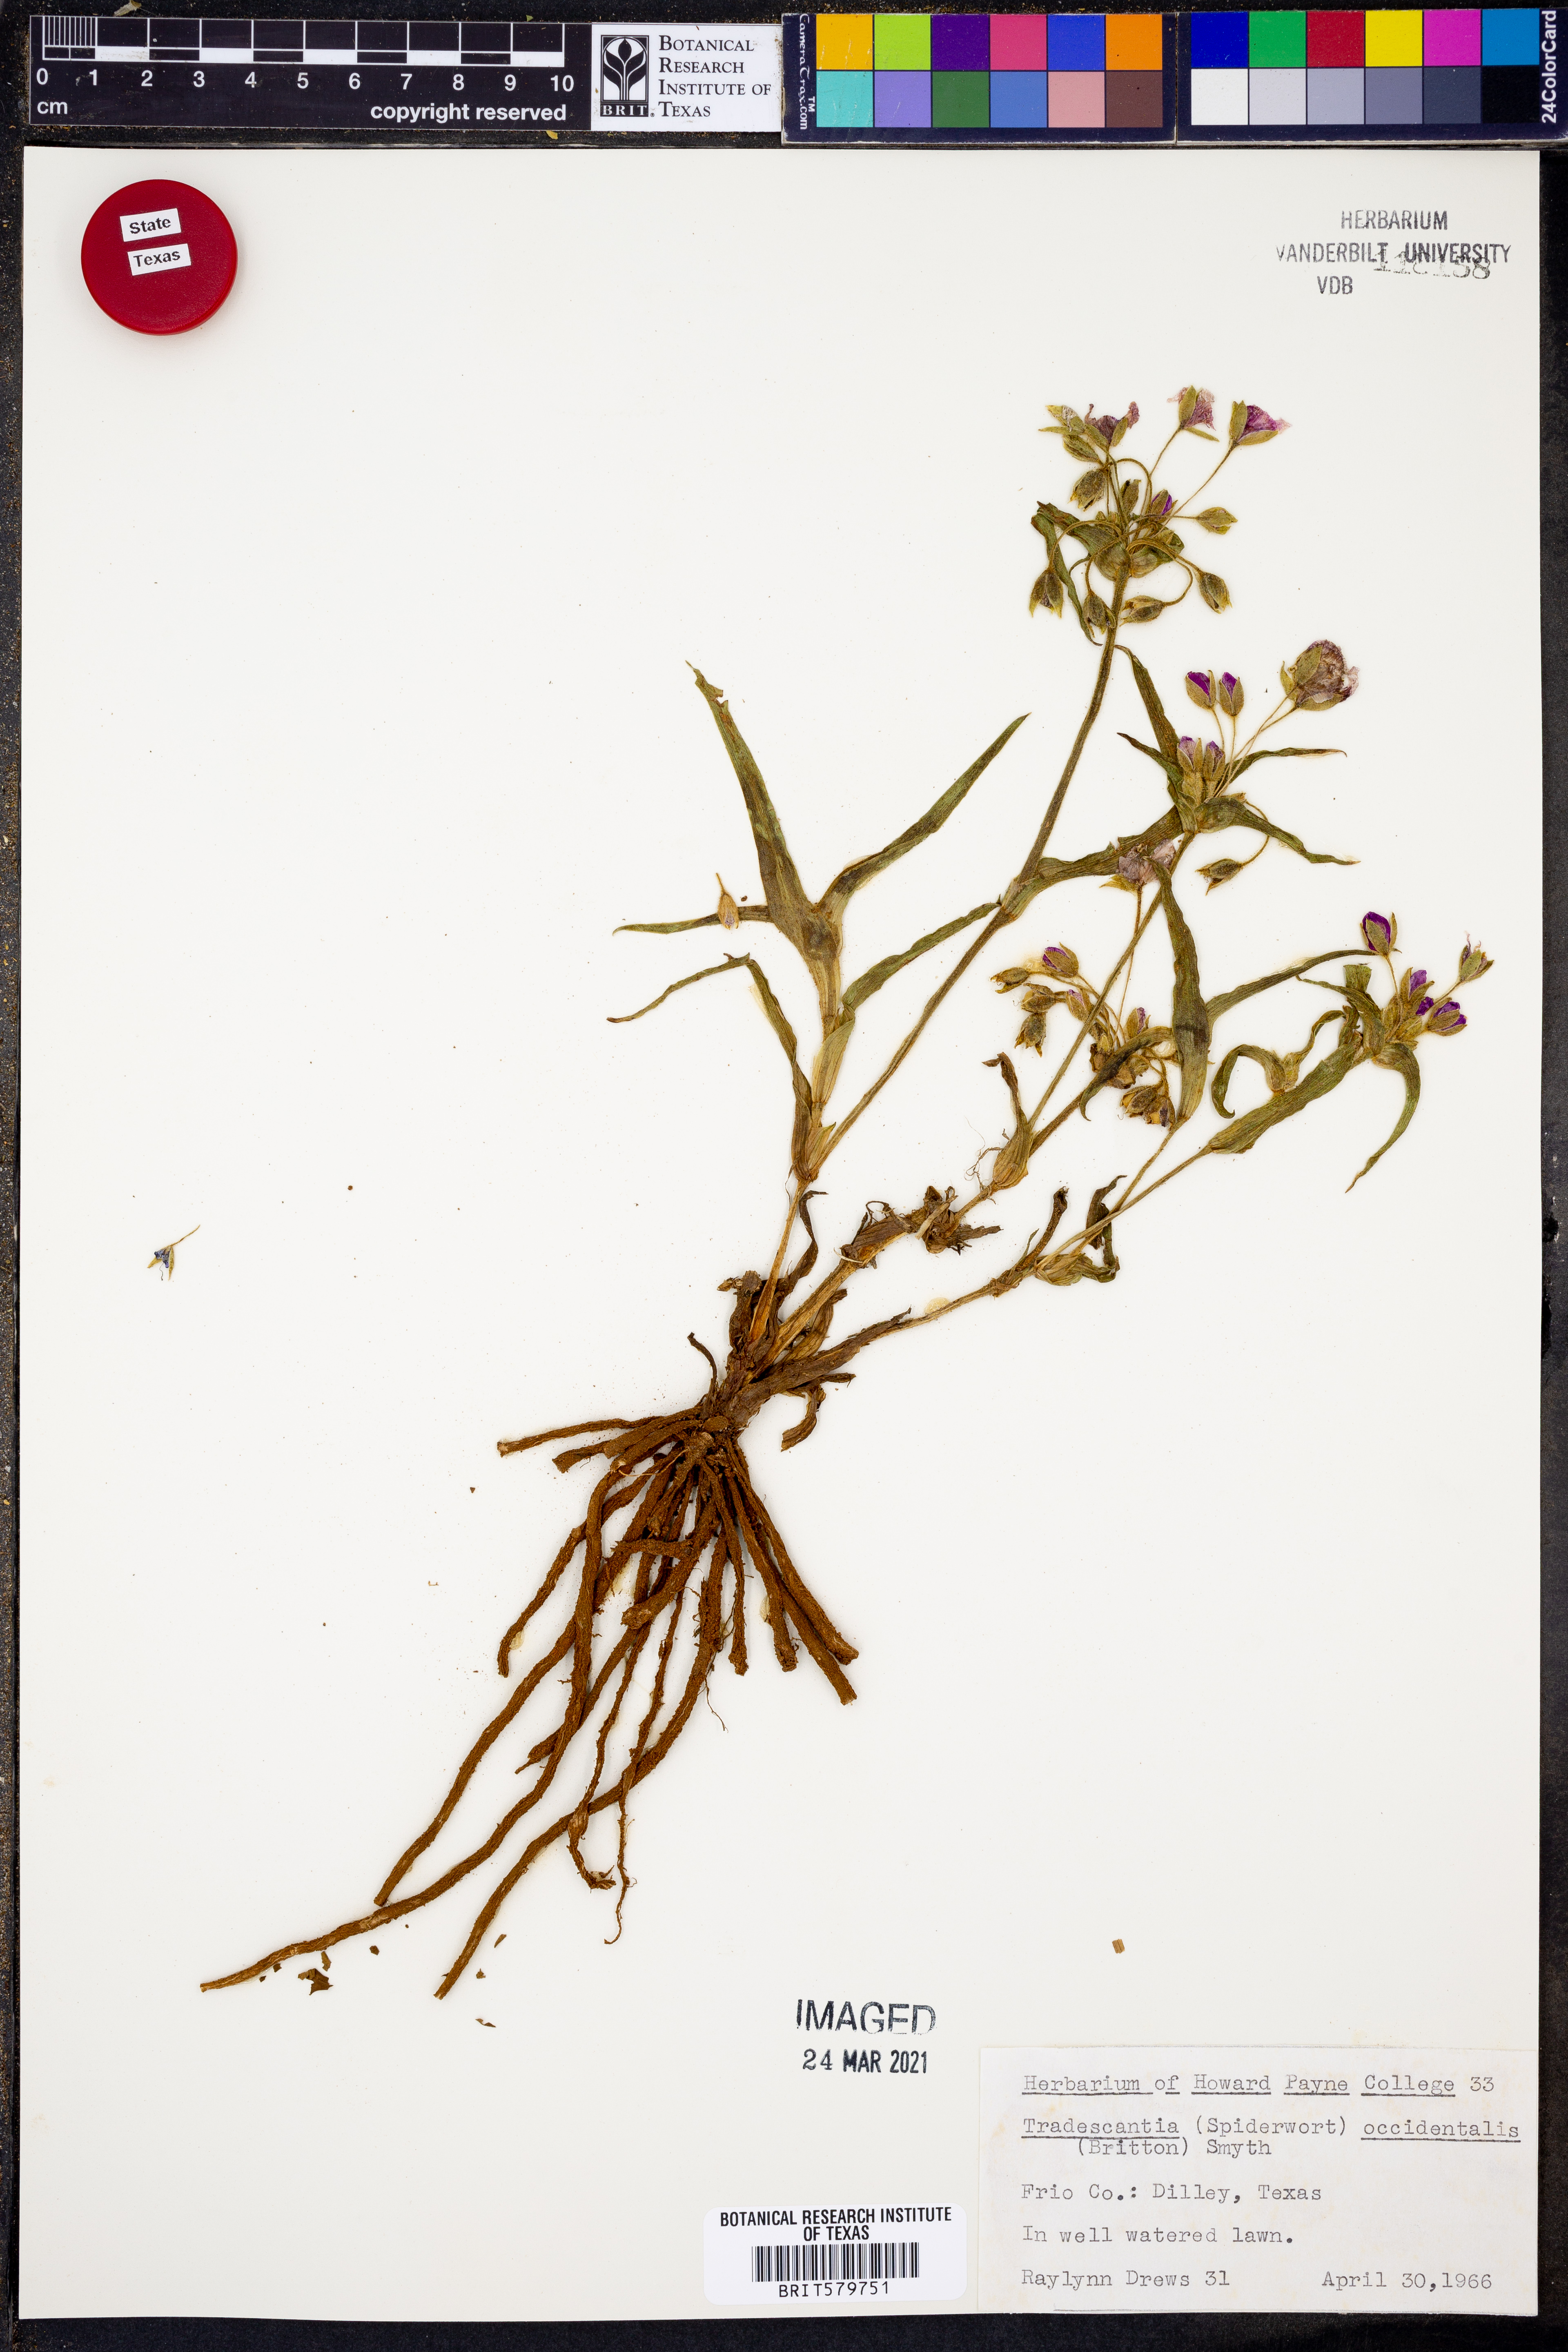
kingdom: Plantae
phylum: Tracheophyta
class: Liliopsida
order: Commelinales
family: Commelinaceae
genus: Tradescantia
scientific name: Tradescantia occidentalis
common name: Prairie spiderwort
